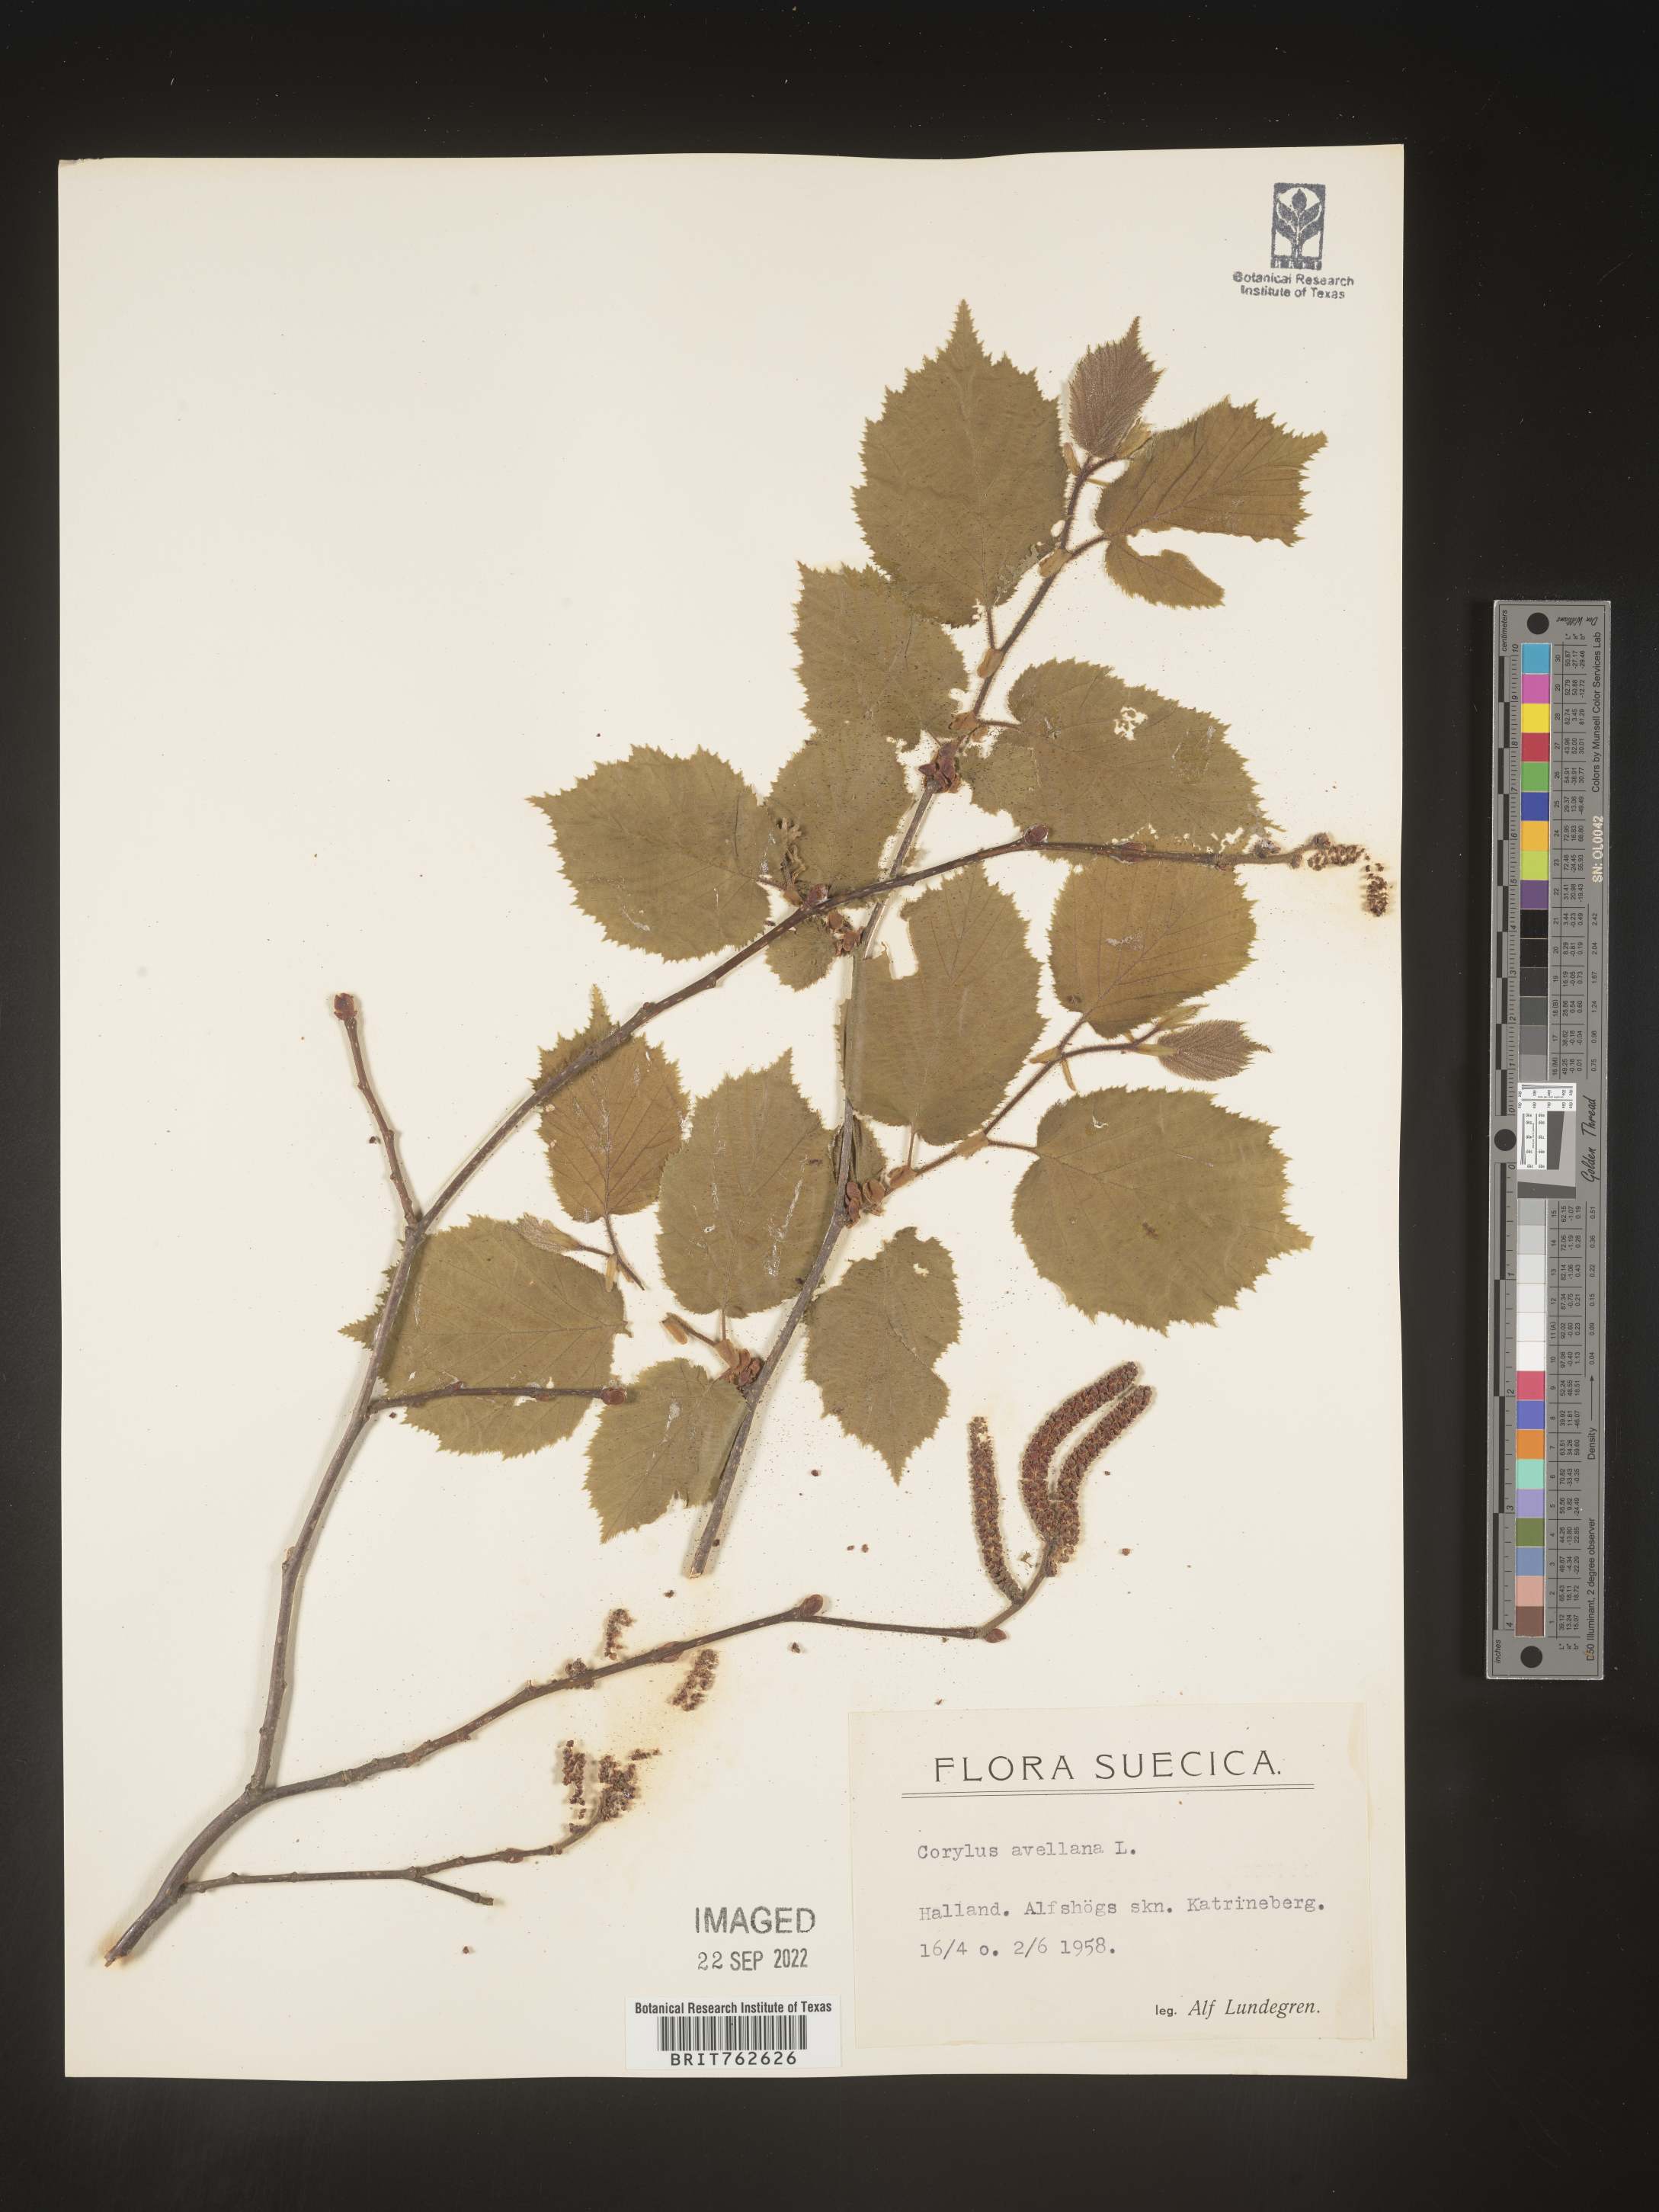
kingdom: Plantae
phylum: Tracheophyta
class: Magnoliopsida
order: Fagales
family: Betulaceae
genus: Corylus
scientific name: Corylus
